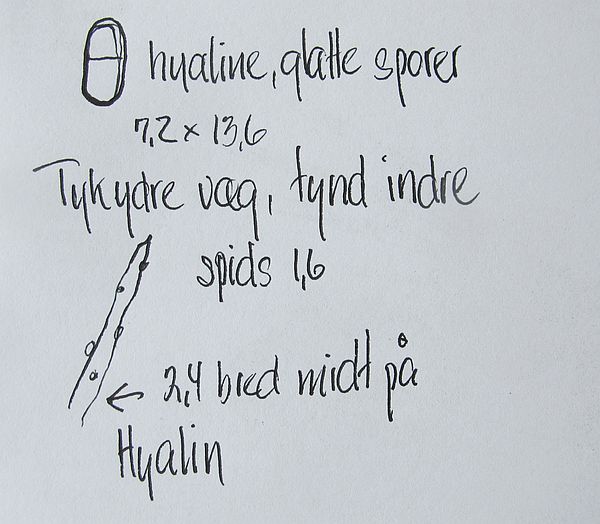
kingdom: Fungi
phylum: Ascomycota
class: Sordariomycetes
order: Hypocreales
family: Hypocreaceae
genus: Hypomyces
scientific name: Hypomyces aurantius
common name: almindelig snylteskorpe
